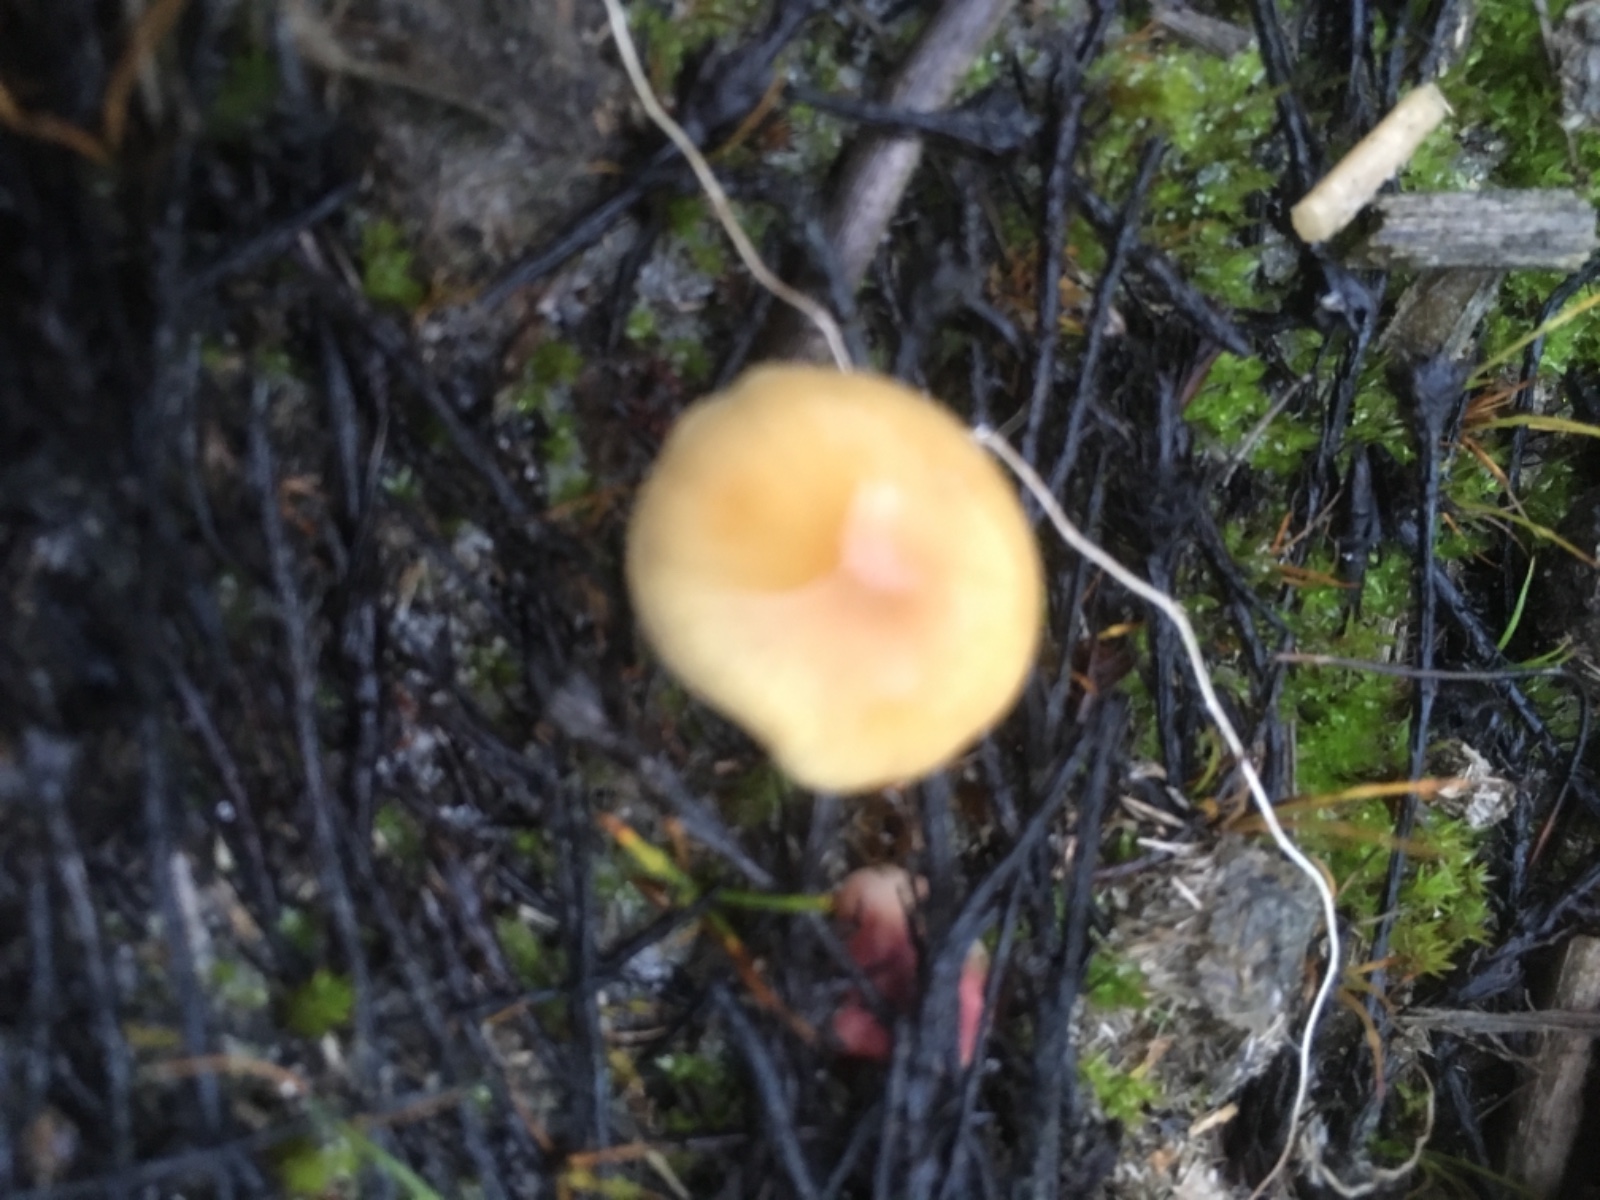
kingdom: Fungi
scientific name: Fungi
